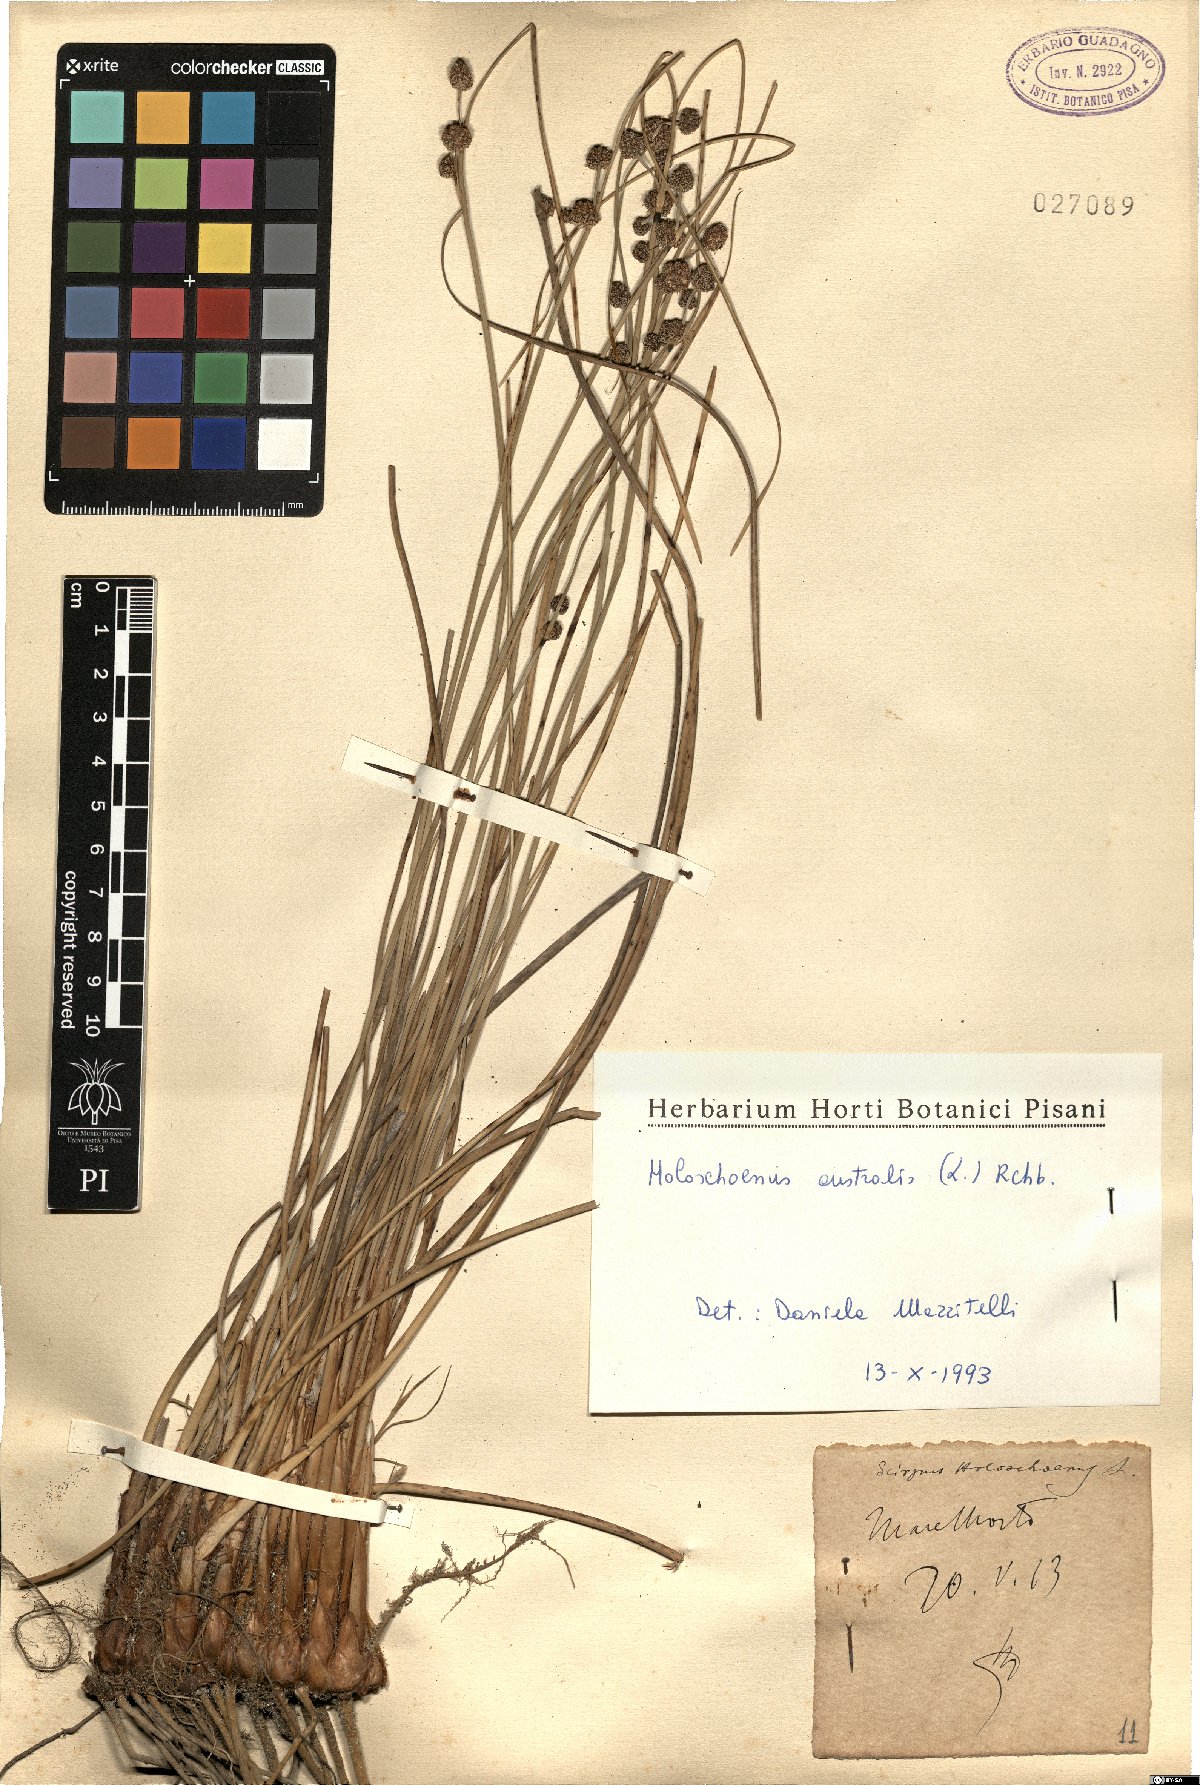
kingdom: Plantae
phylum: Tracheophyta
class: Liliopsida
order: Poales
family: Cyperaceae
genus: Scirpoides
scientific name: Scirpoides holoschoenus
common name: Round-headed club-rush
